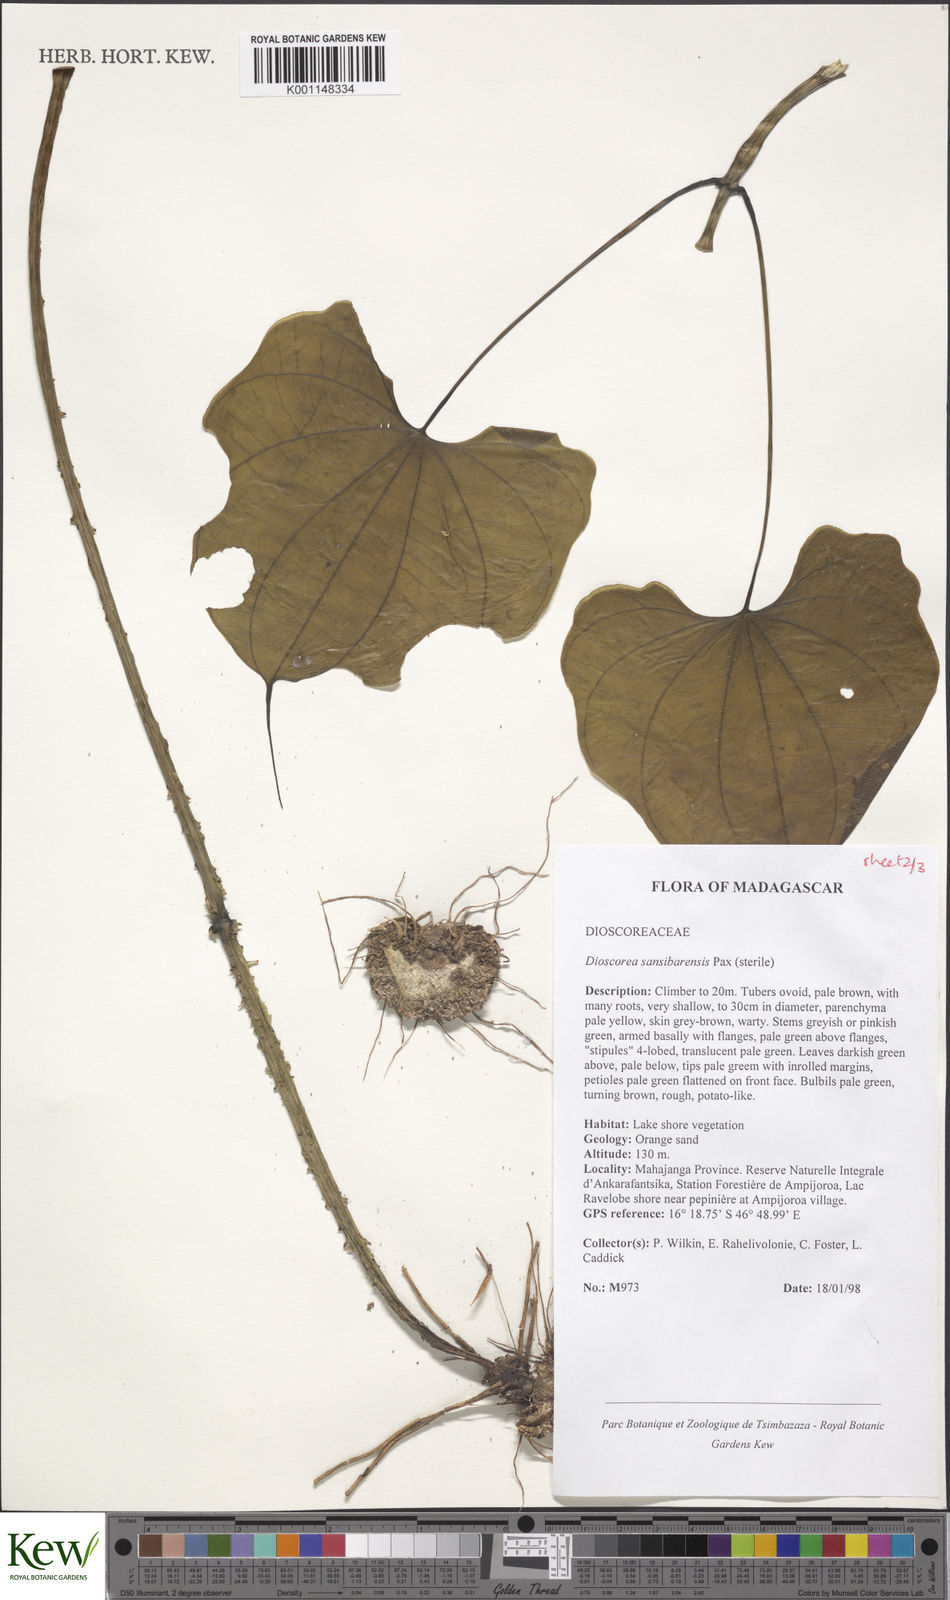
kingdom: Plantae
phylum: Tracheophyta
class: Liliopsida
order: Dioscoreales
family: Dioscoreaceae
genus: Dioscorea
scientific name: Dioscorea sansibarensis
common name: Zanzibar yam
